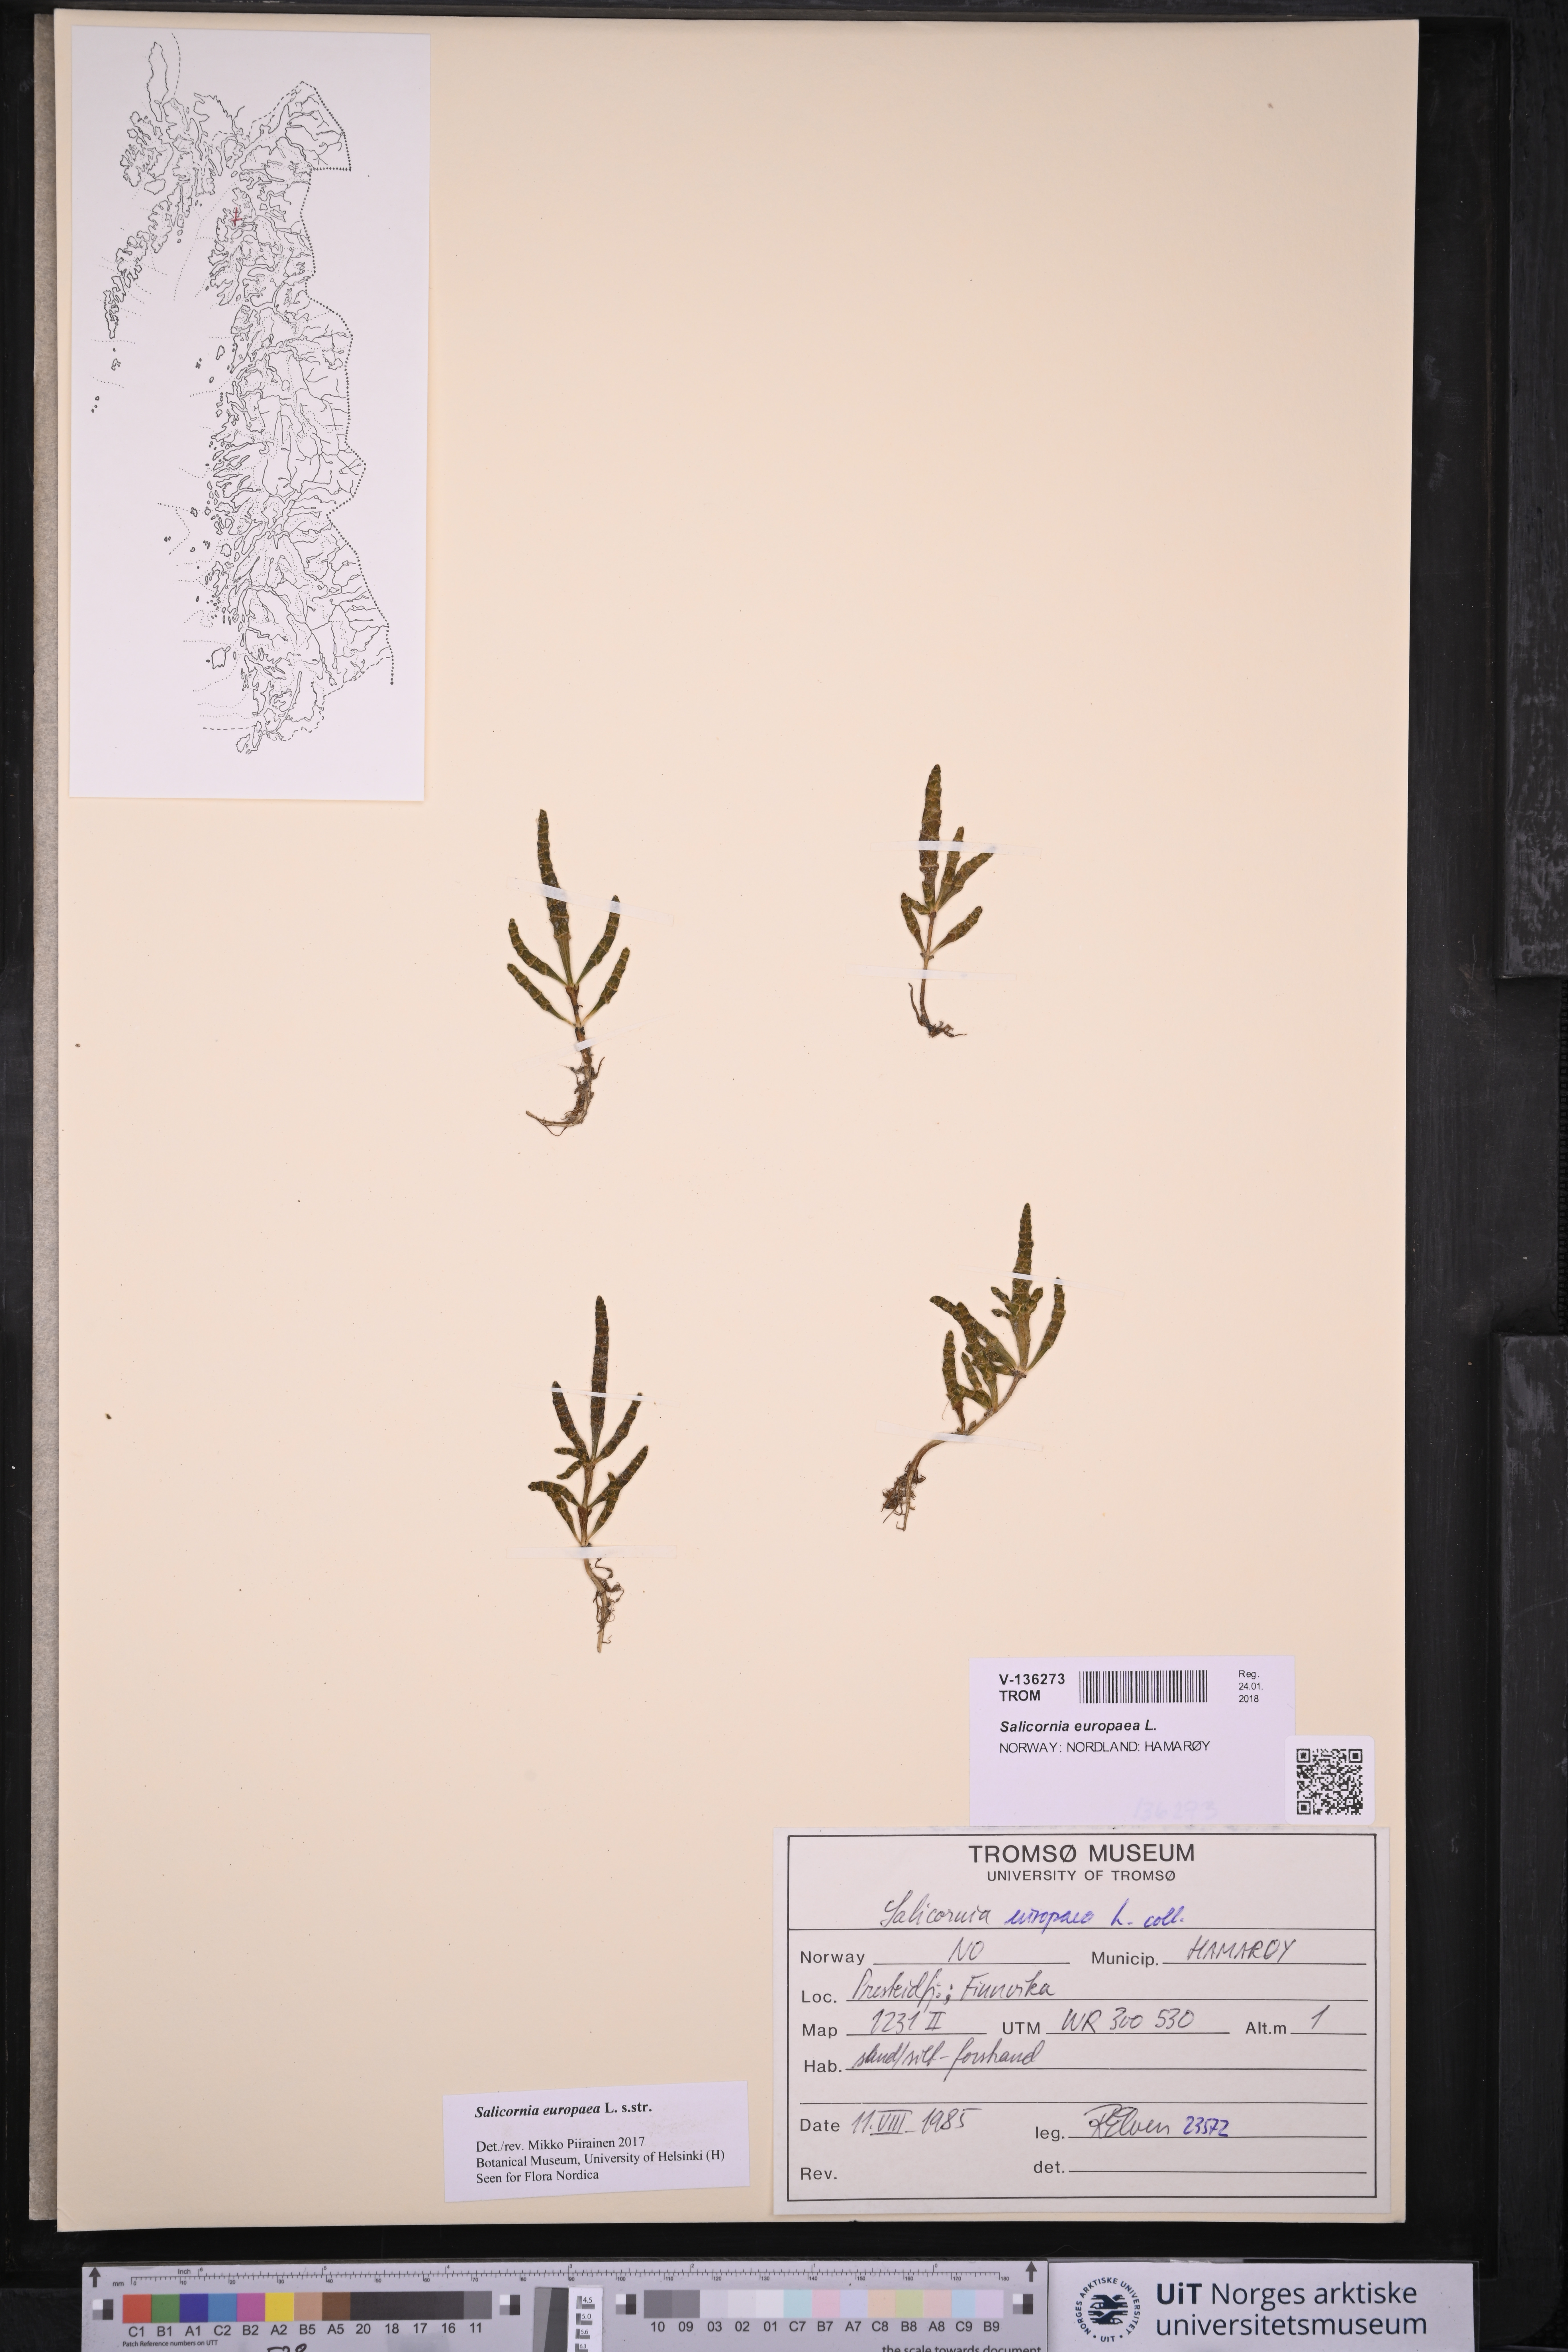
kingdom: Plantae
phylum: Tracheophyta
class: Magnoliopsida
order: Caryophyllales
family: Amaranthaceae
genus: Salicornia
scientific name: Salicornia europaea
